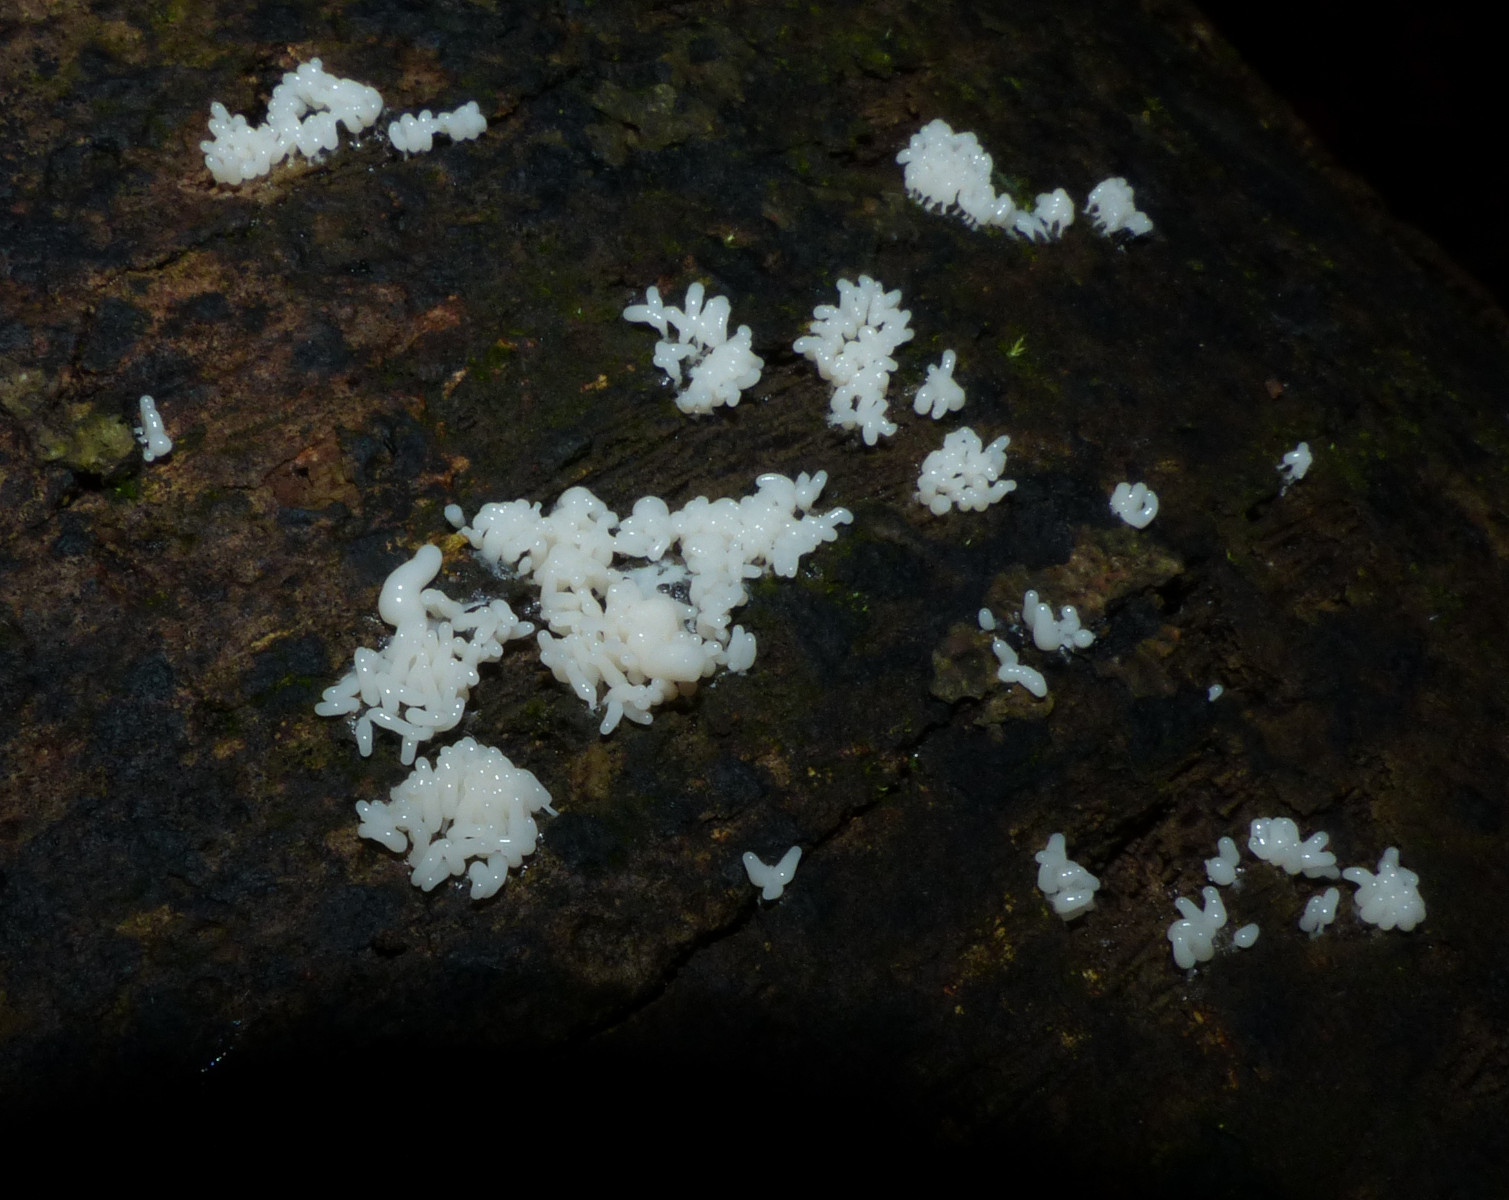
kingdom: Protozoa
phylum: Mycetozoa
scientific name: Mycetozoa
